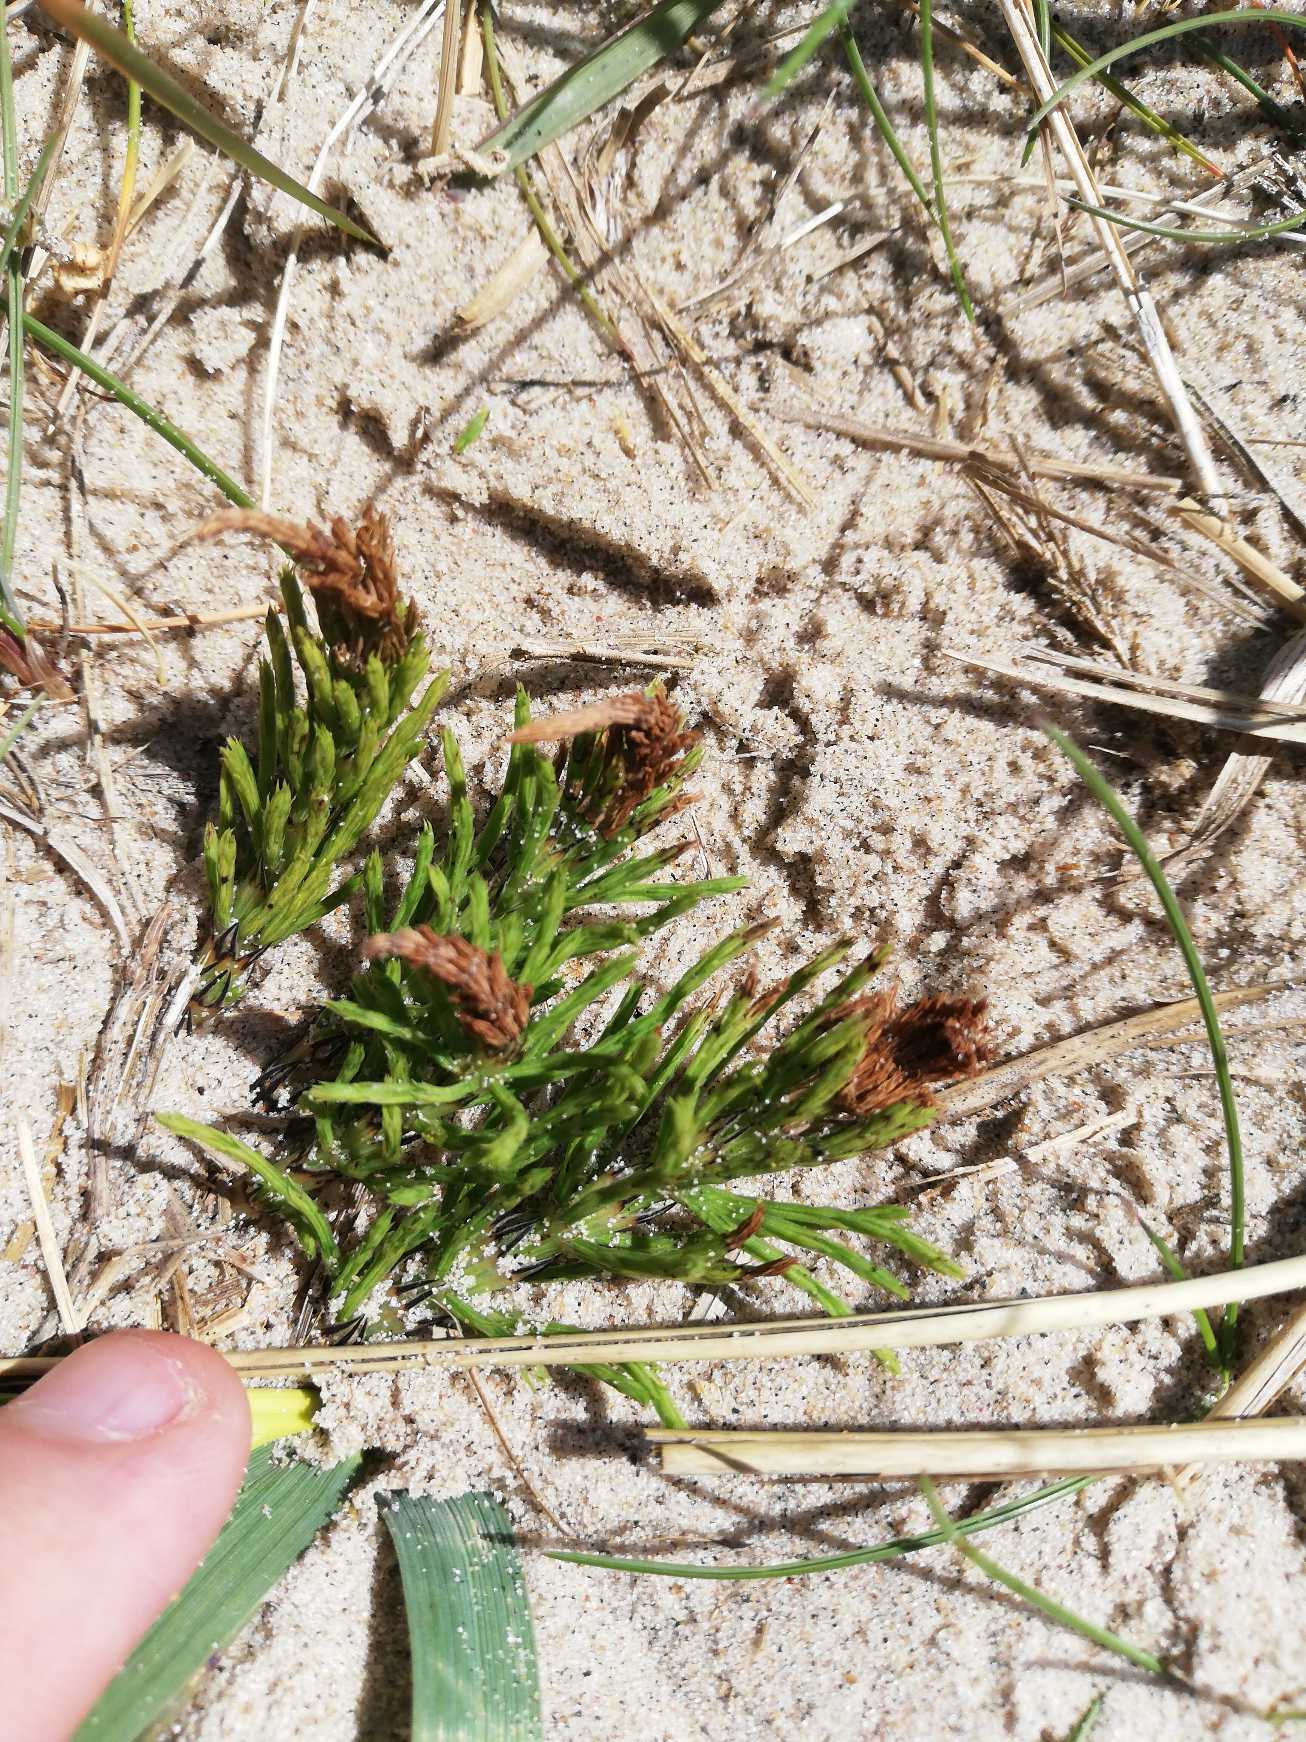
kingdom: Plantae
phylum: Tracheophyta
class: Polypodiopsida
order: Equisetales
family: Equisetaceae
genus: Equisetum
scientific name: Equisetum arvense
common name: Ager-padderok
